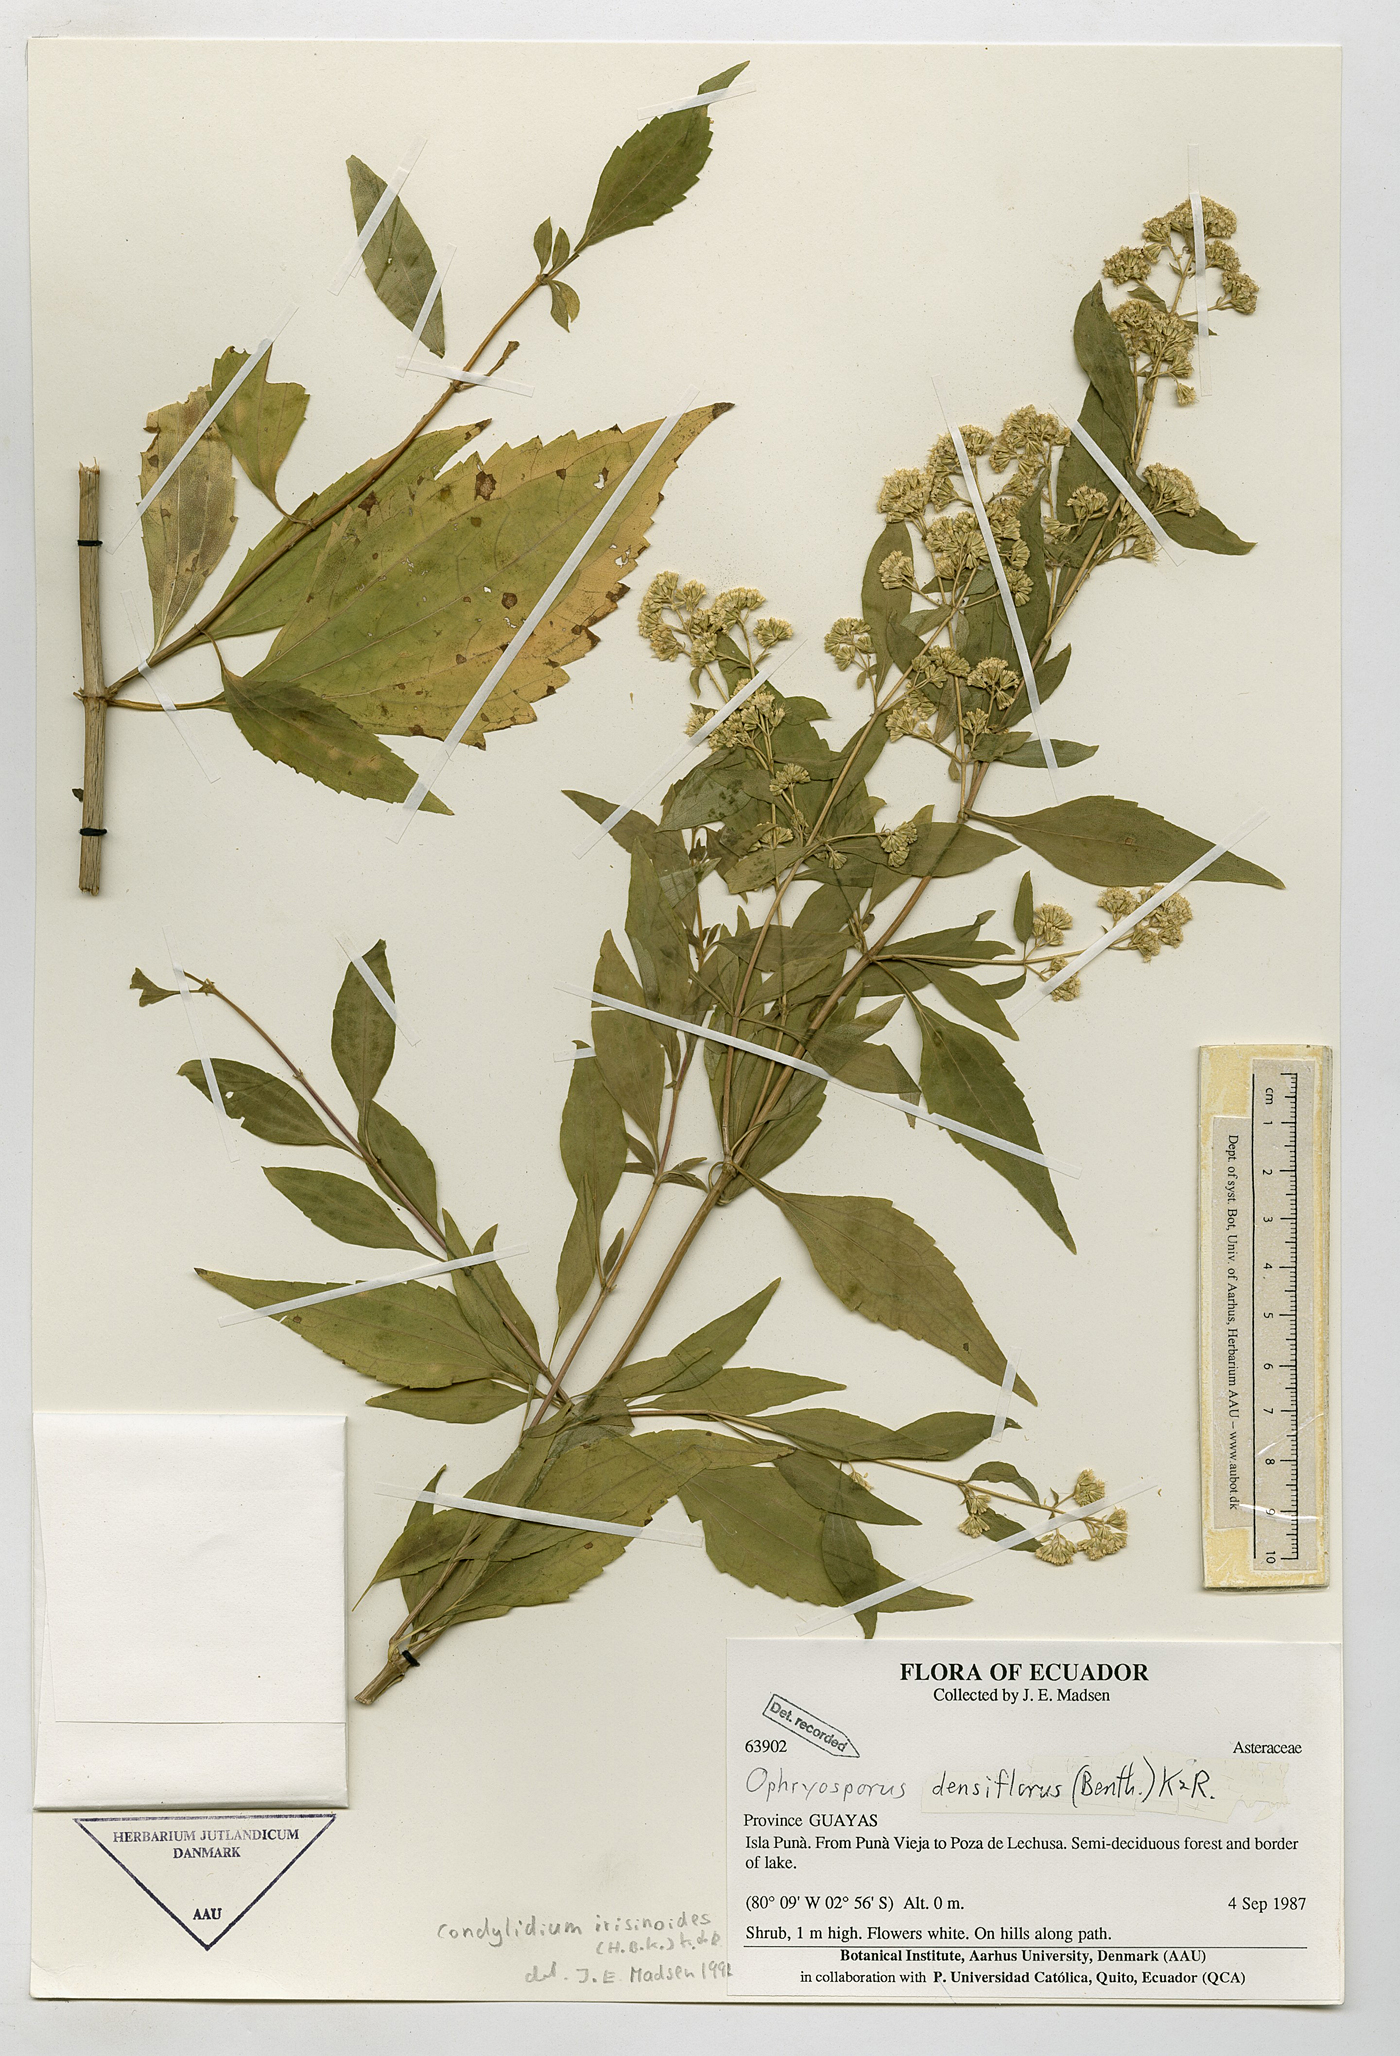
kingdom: Plantae
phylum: Tracheophyta
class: Magnoliopsida
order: Asterales
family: Asteraceae
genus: Ophryosporus
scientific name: Ophryosporus densiflorus
